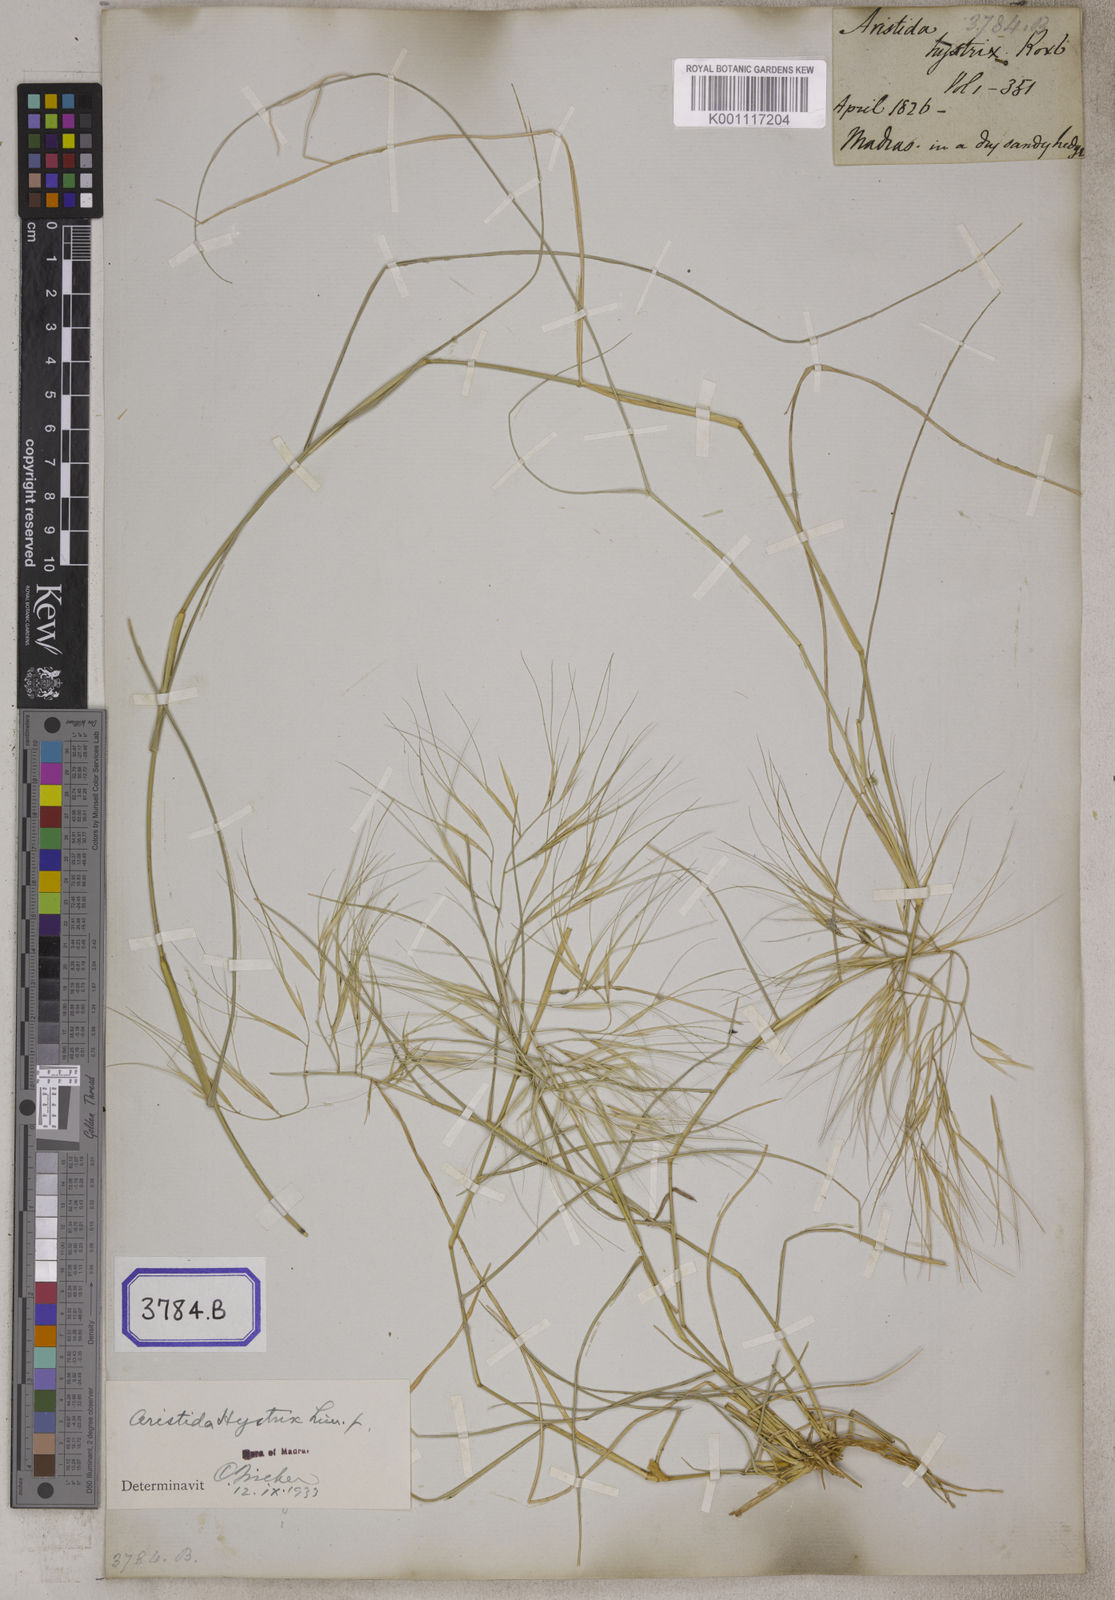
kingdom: Plantae
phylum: Tracheophyta
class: Liliopsida
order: Poales
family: Poaceae
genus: Aristida
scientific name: Aristida hystrix
